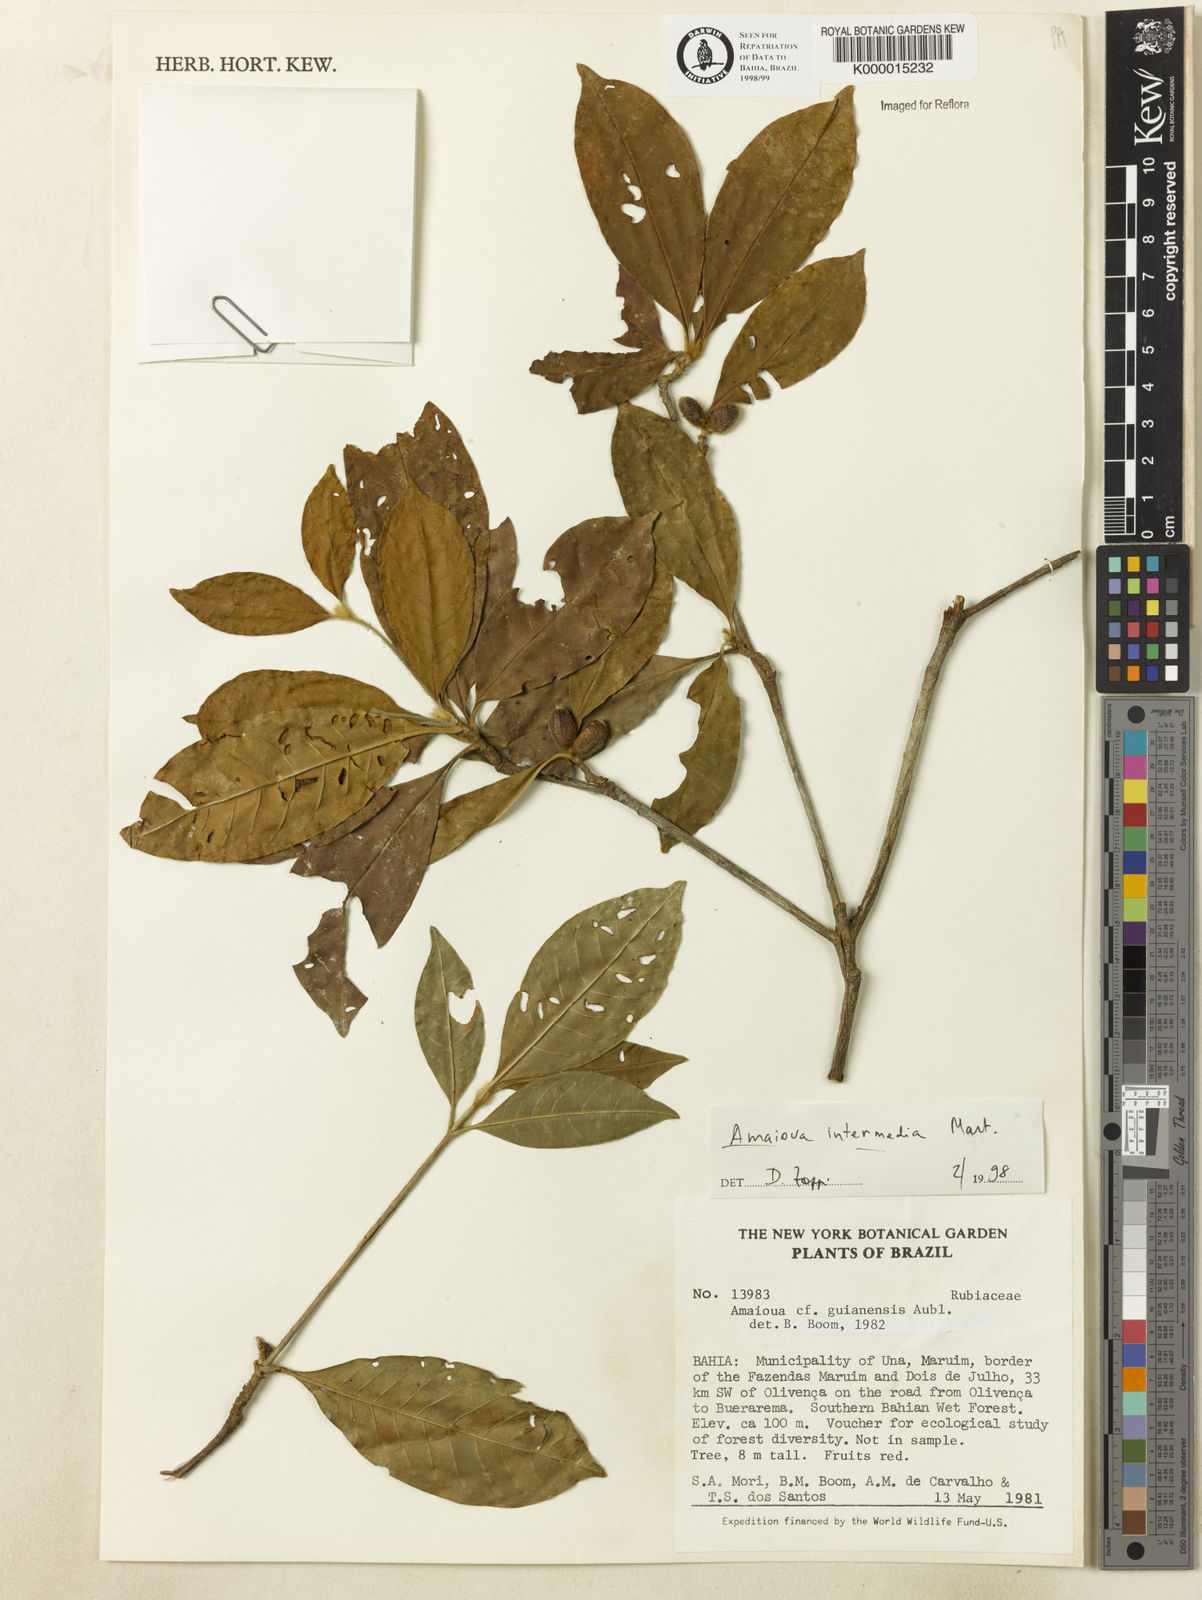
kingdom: Plantae
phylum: Tracheophyta
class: Magnoliopsida
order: Gentianales
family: Rubiaceae
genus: Amaioua
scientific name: Amaioua
